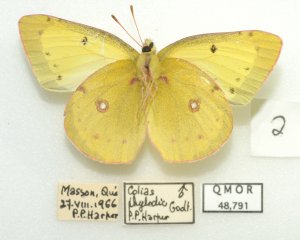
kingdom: Animalia
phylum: Arthropoda
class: Insecta
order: Lepidoptera
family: Pieridae
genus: Colias
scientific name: Colias philodice
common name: Clouded Sulphur
